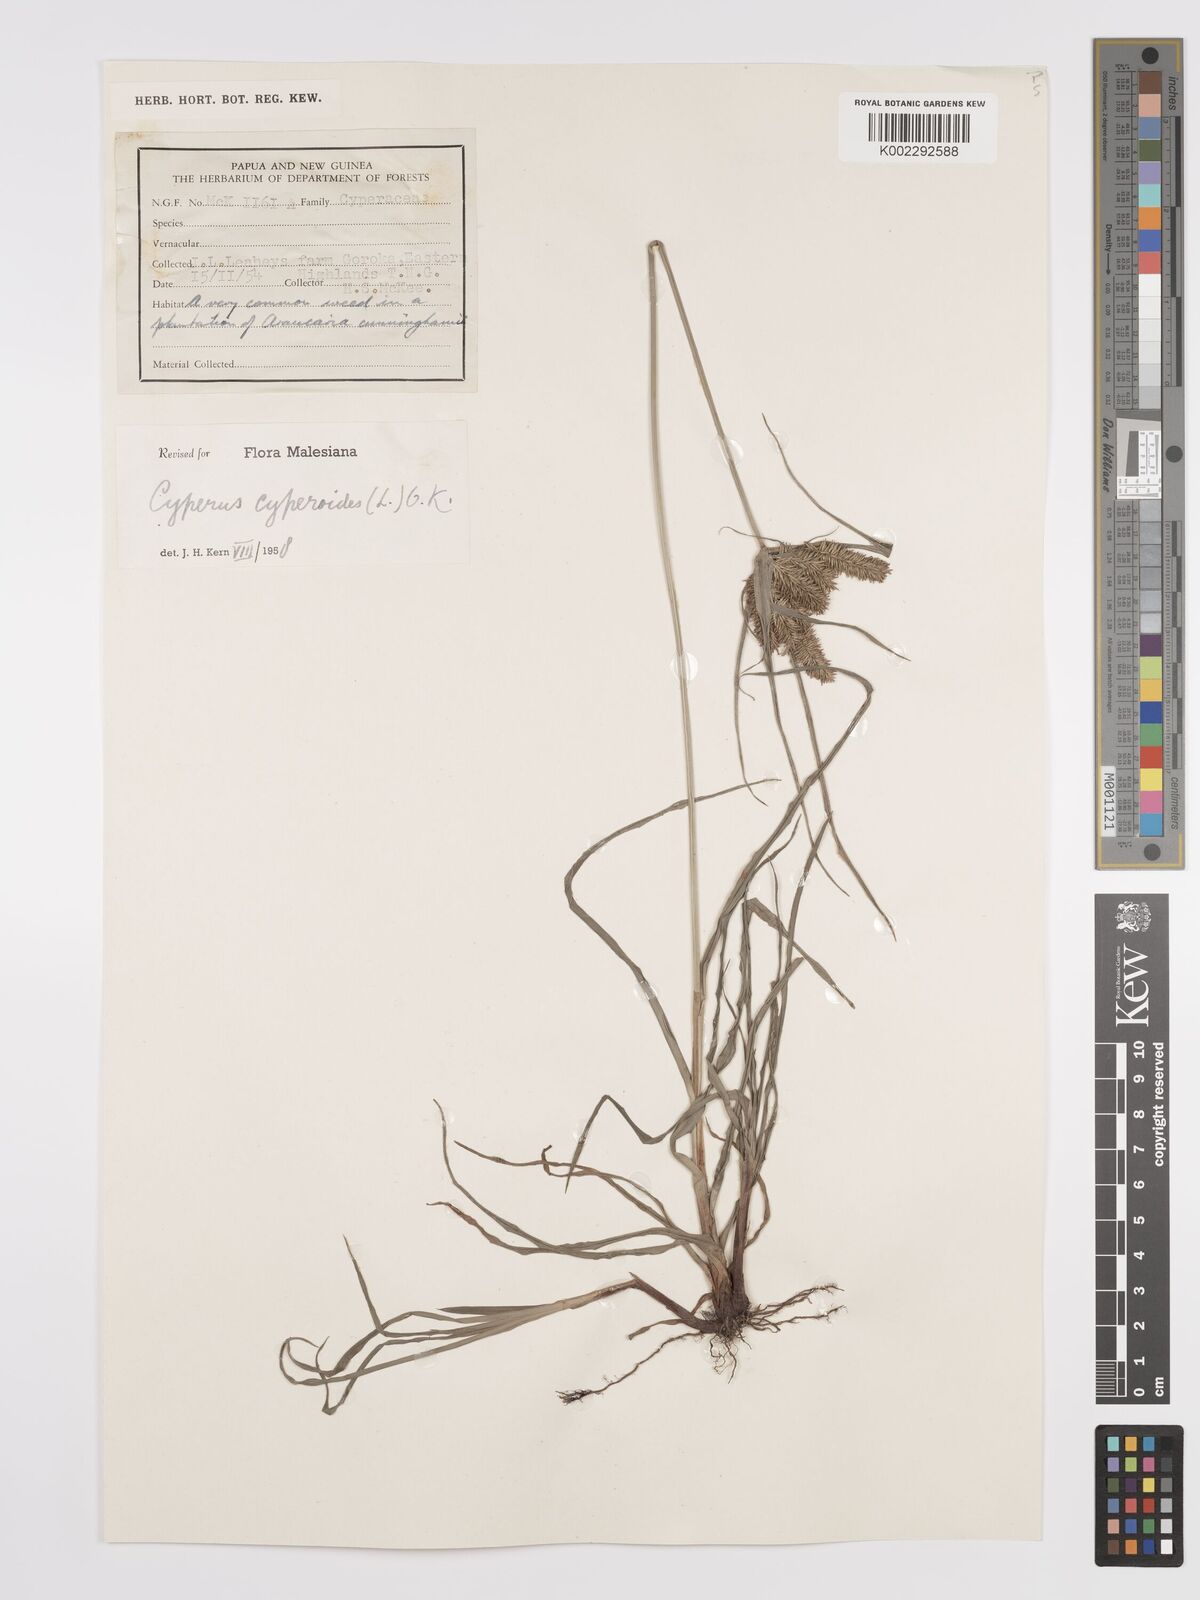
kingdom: Plantae
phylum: Tracheophyta
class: Liliopsida
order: Poales
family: Cyperaceae
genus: Cyperus
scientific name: Cyperus cyperoides
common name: Pacific island flat sedge
